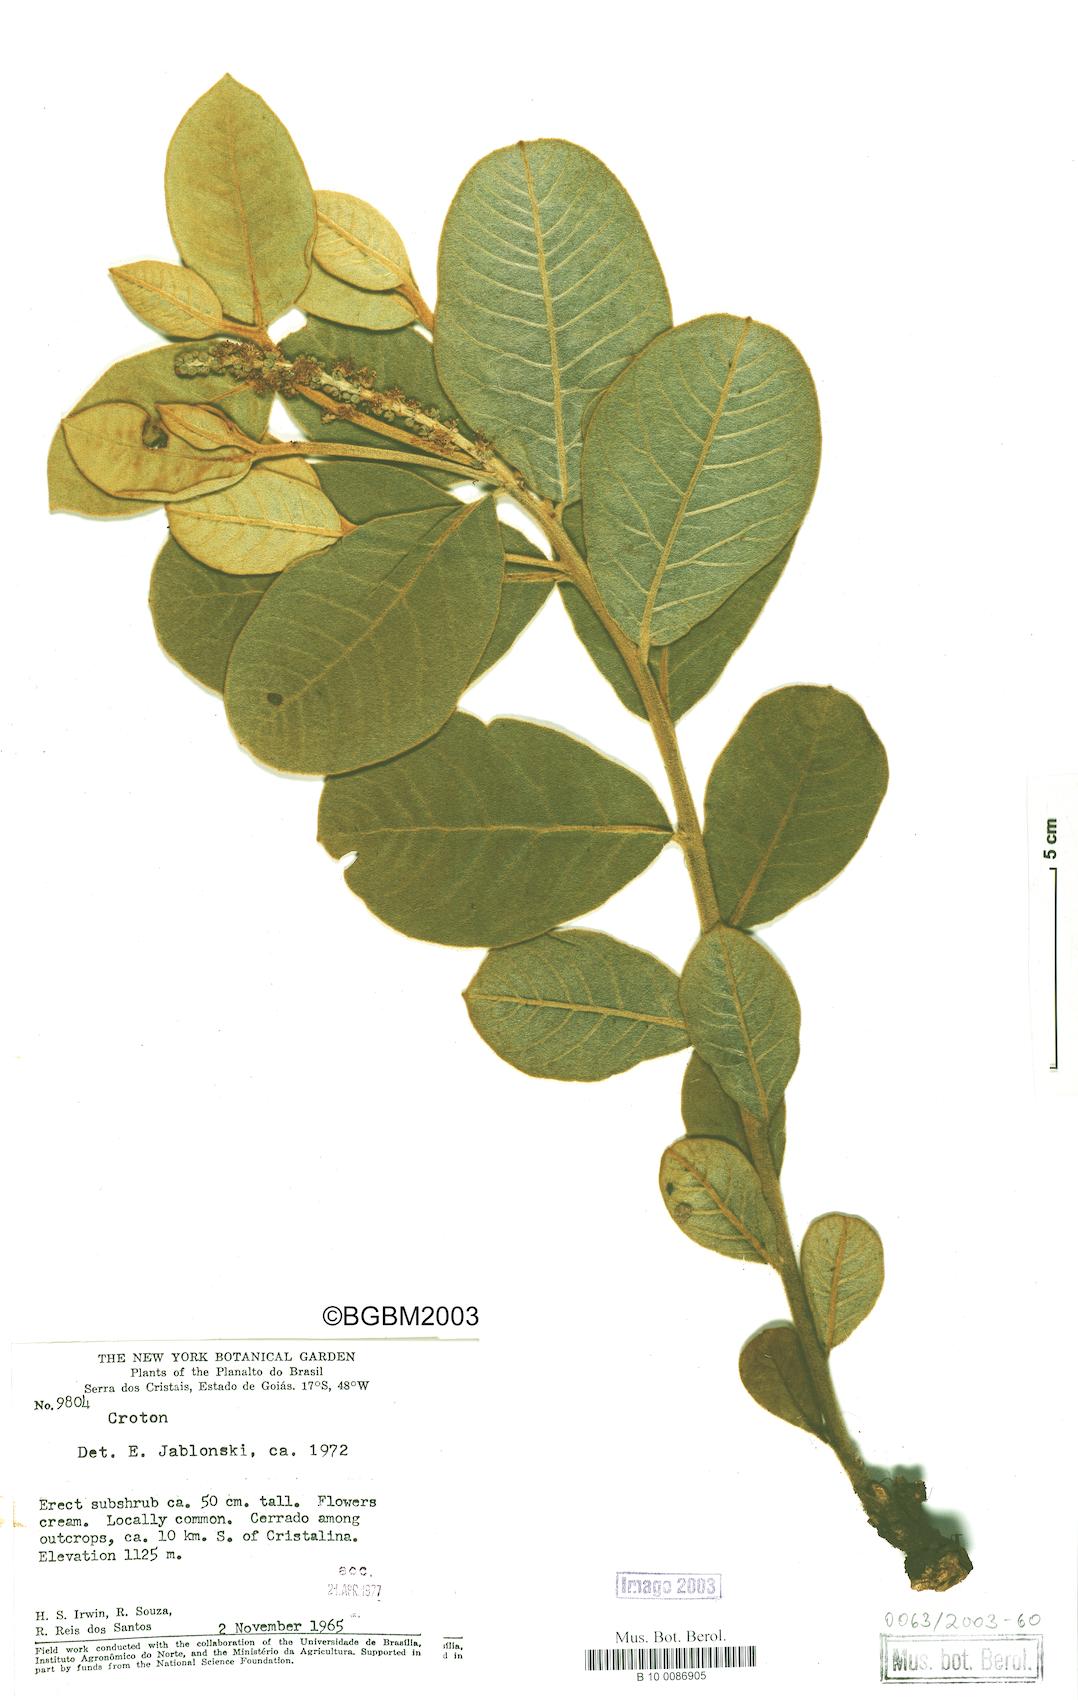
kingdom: Plantae
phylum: Tracheophyta
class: Magnoliopsida
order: Malpighiales
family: Euphorbiaceae
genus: Croton
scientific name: Croton
